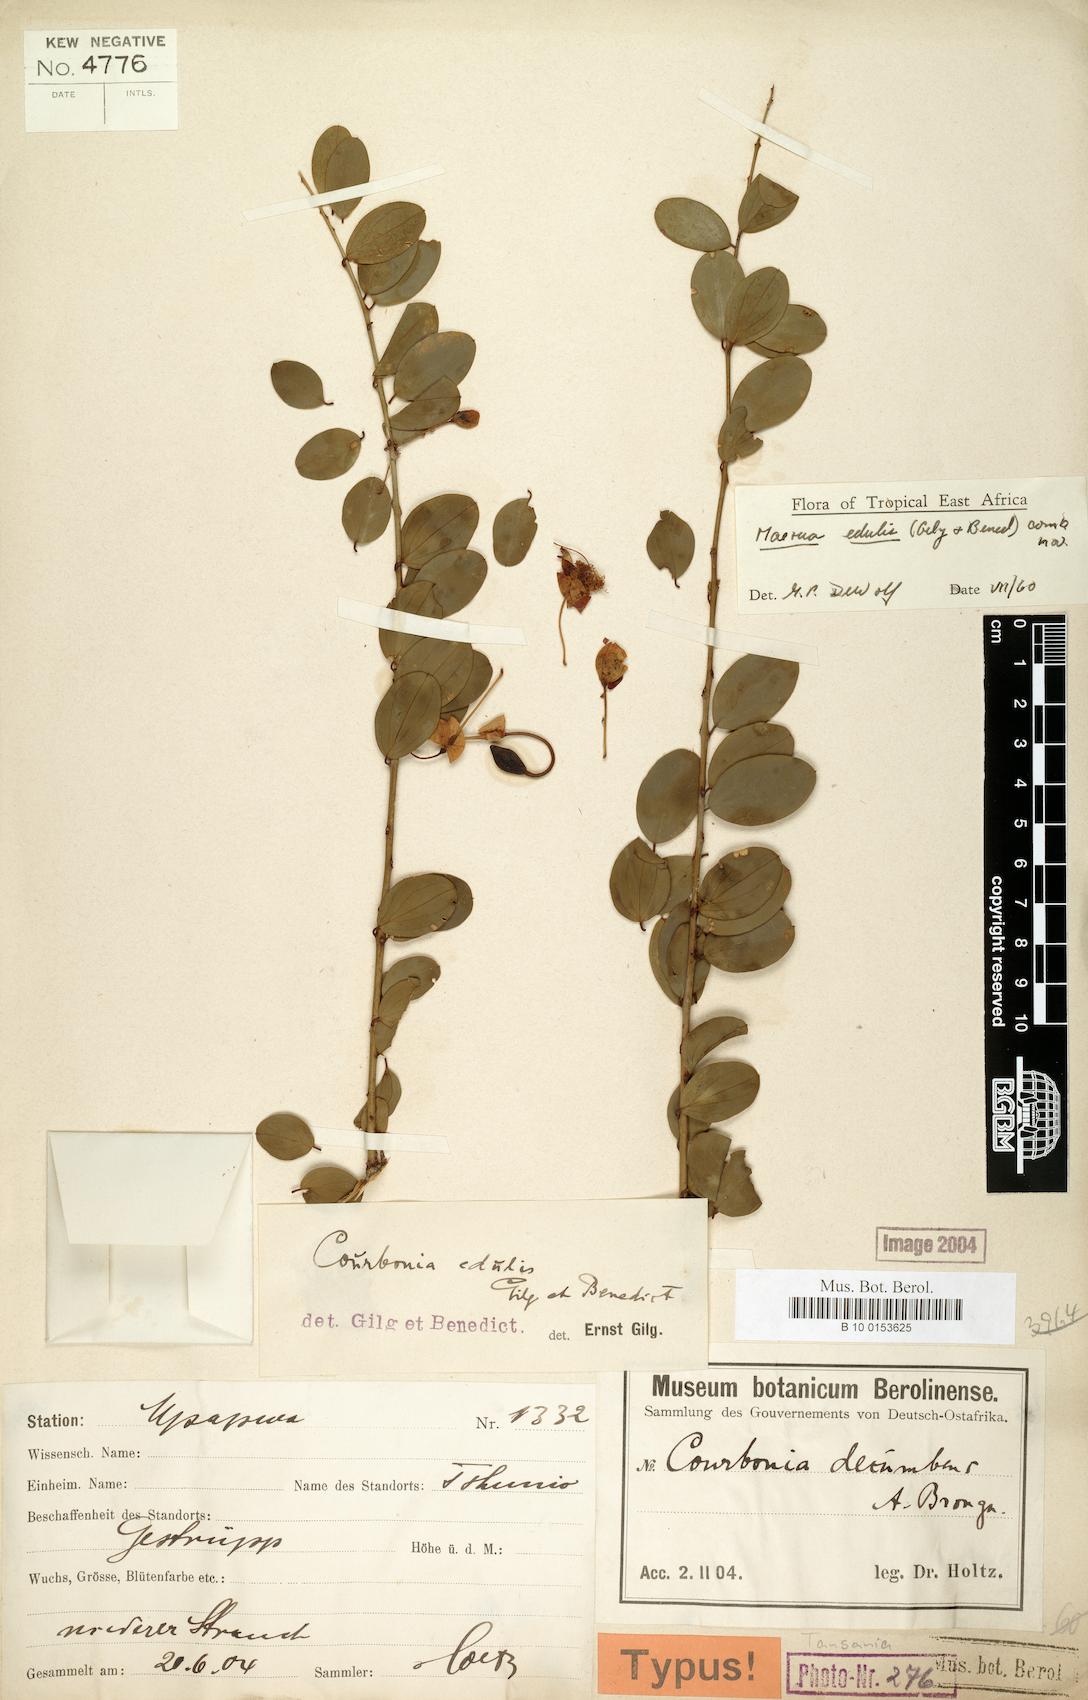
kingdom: Plantae
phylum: Tracheophyta
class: Magnoliopsida
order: Brassicales
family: Capparaceae
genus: Maerua
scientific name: Maerua edulis
